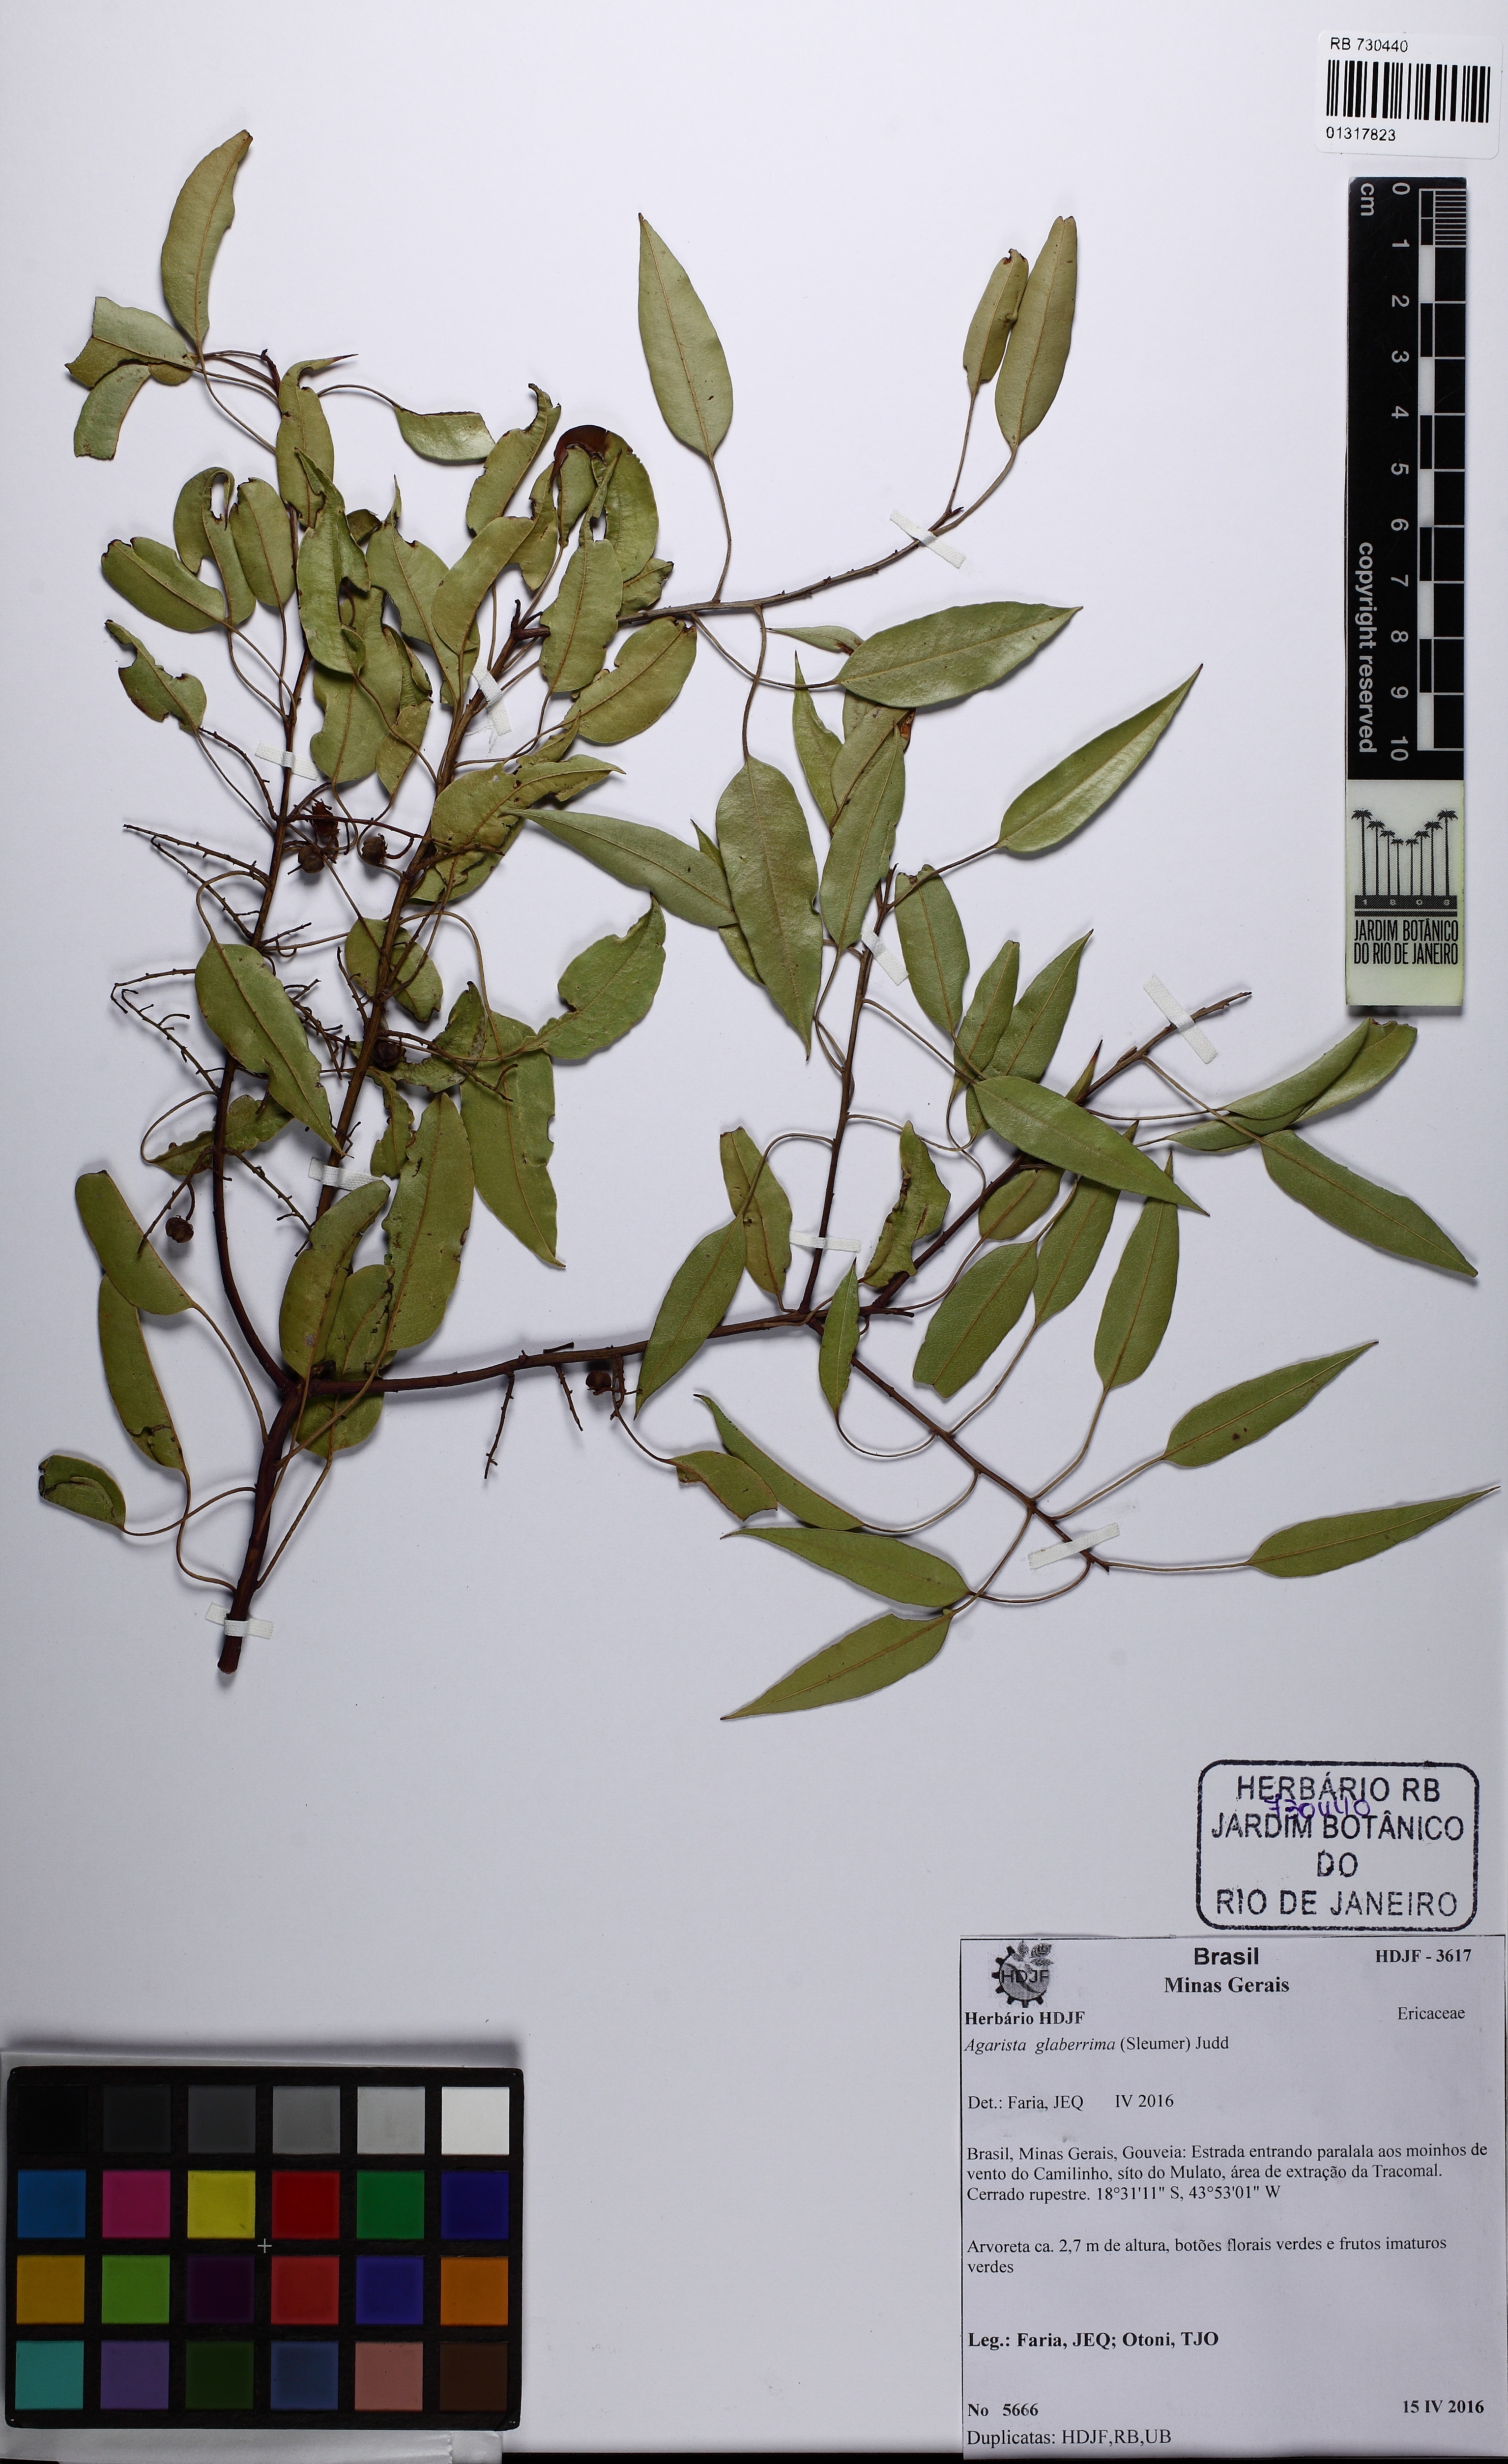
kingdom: Plantae
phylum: Tracheophyta
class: Magnoliopsida
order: Ericales
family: Ericaceae
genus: Agarista
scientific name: Agarista glaberrima
